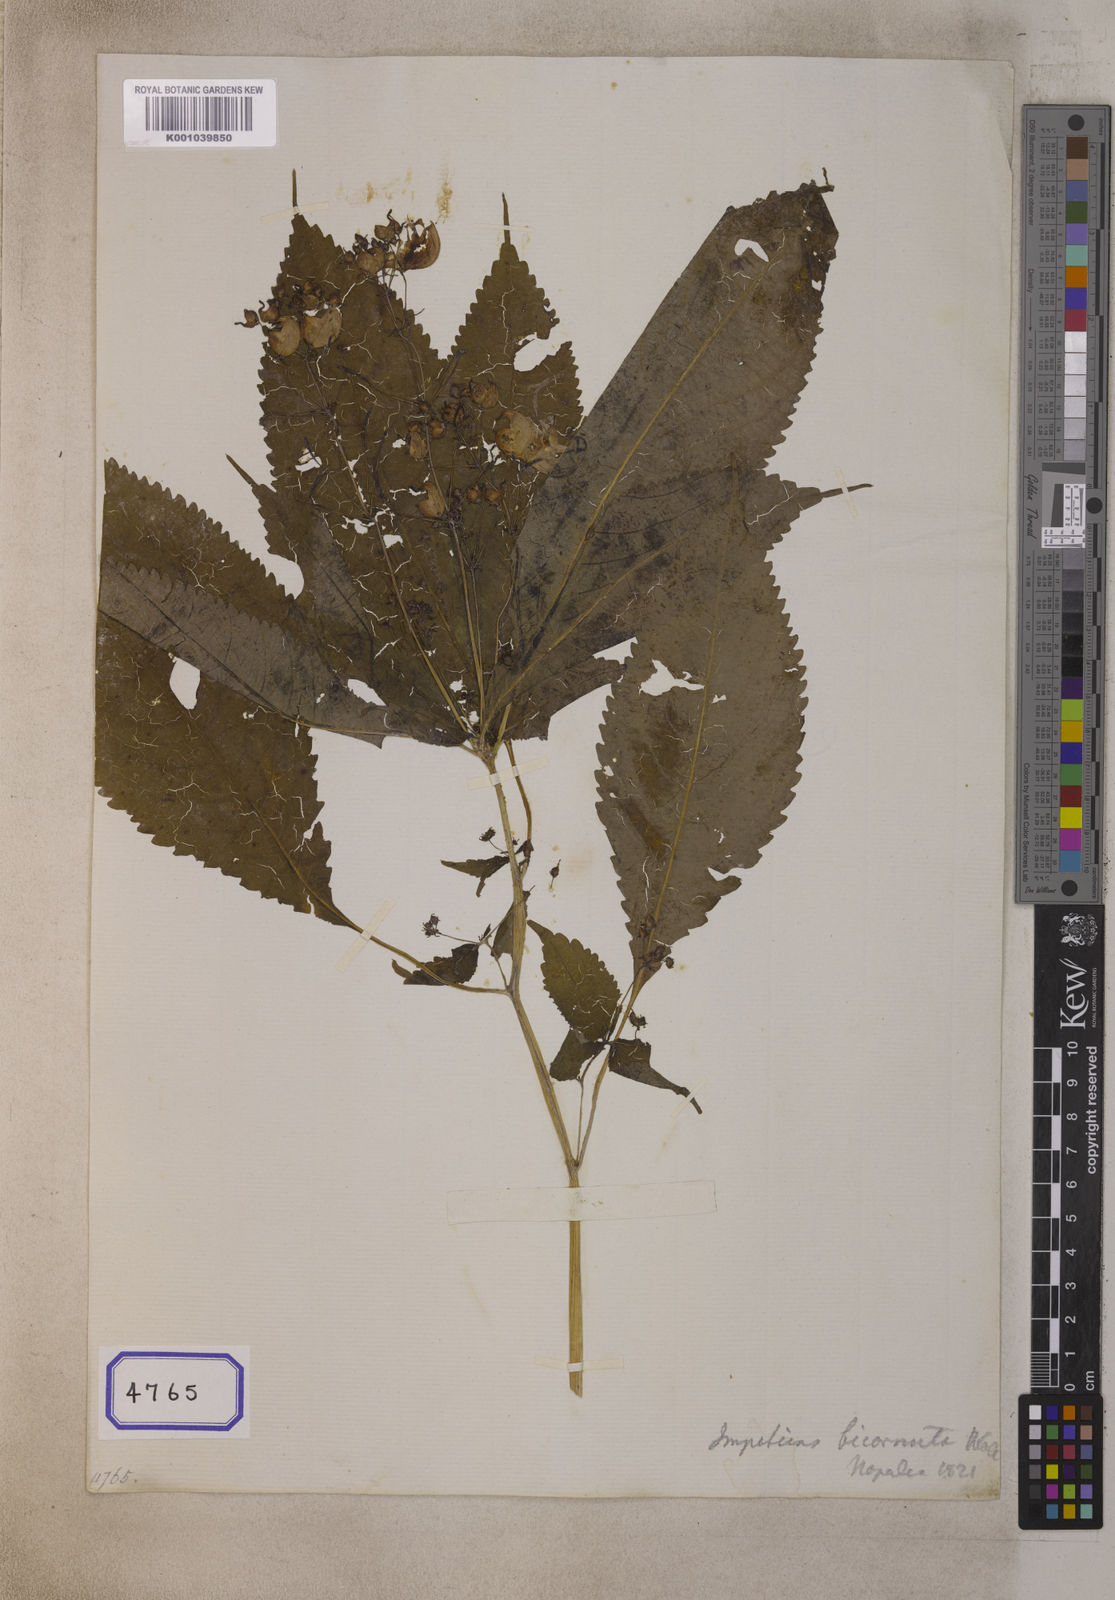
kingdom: Plantae
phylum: Tracheophyta
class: Magnoliopsida
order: Ericales
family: Balsaminaceae
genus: Impatiens
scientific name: Impatiens bicornuta
